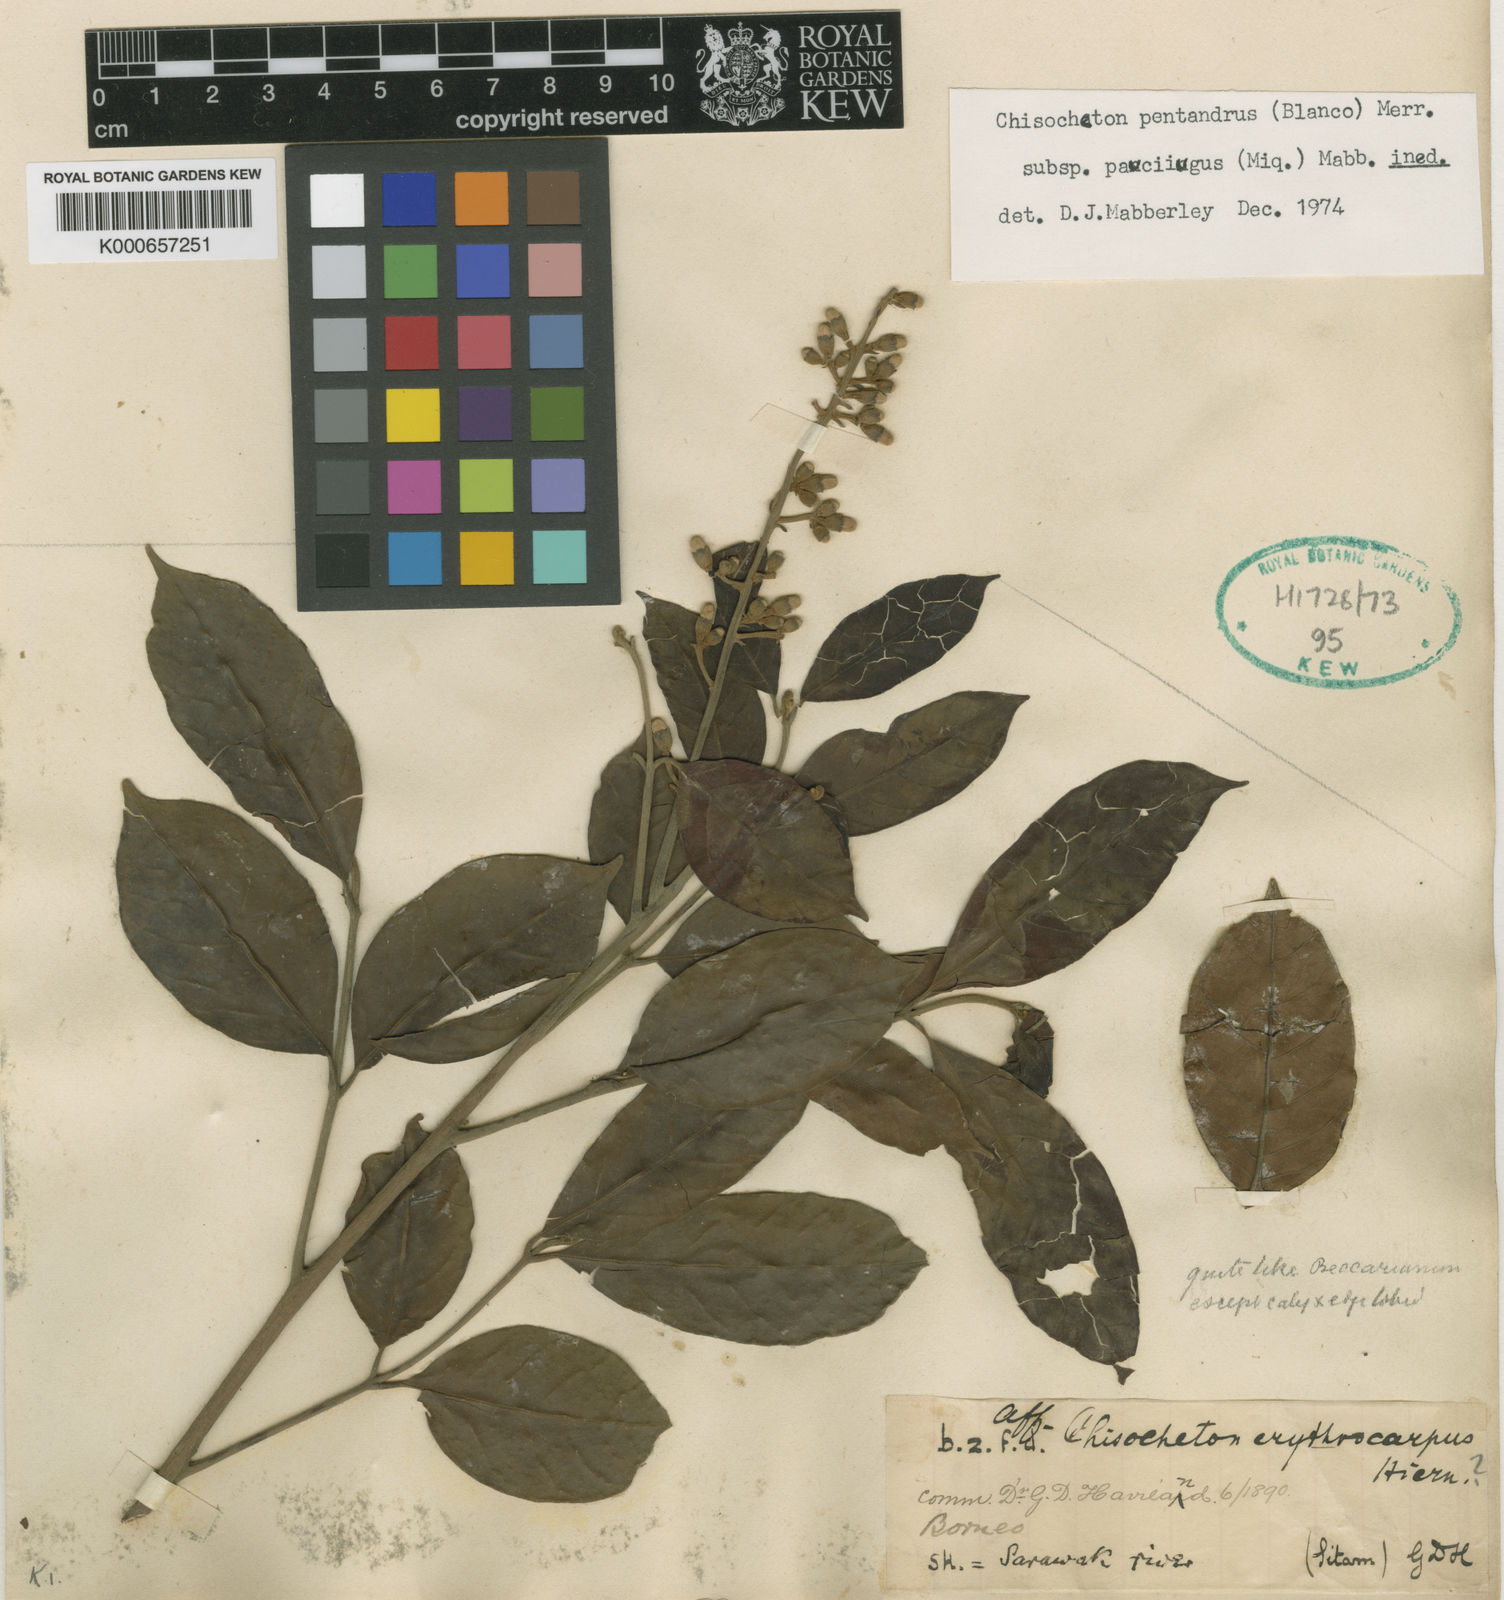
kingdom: Plantae
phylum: Tracheophyta
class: Magnoliopsida
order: Sapindales
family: Meliaceae
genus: Chisocheton
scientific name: Chisocheton pentandrus
